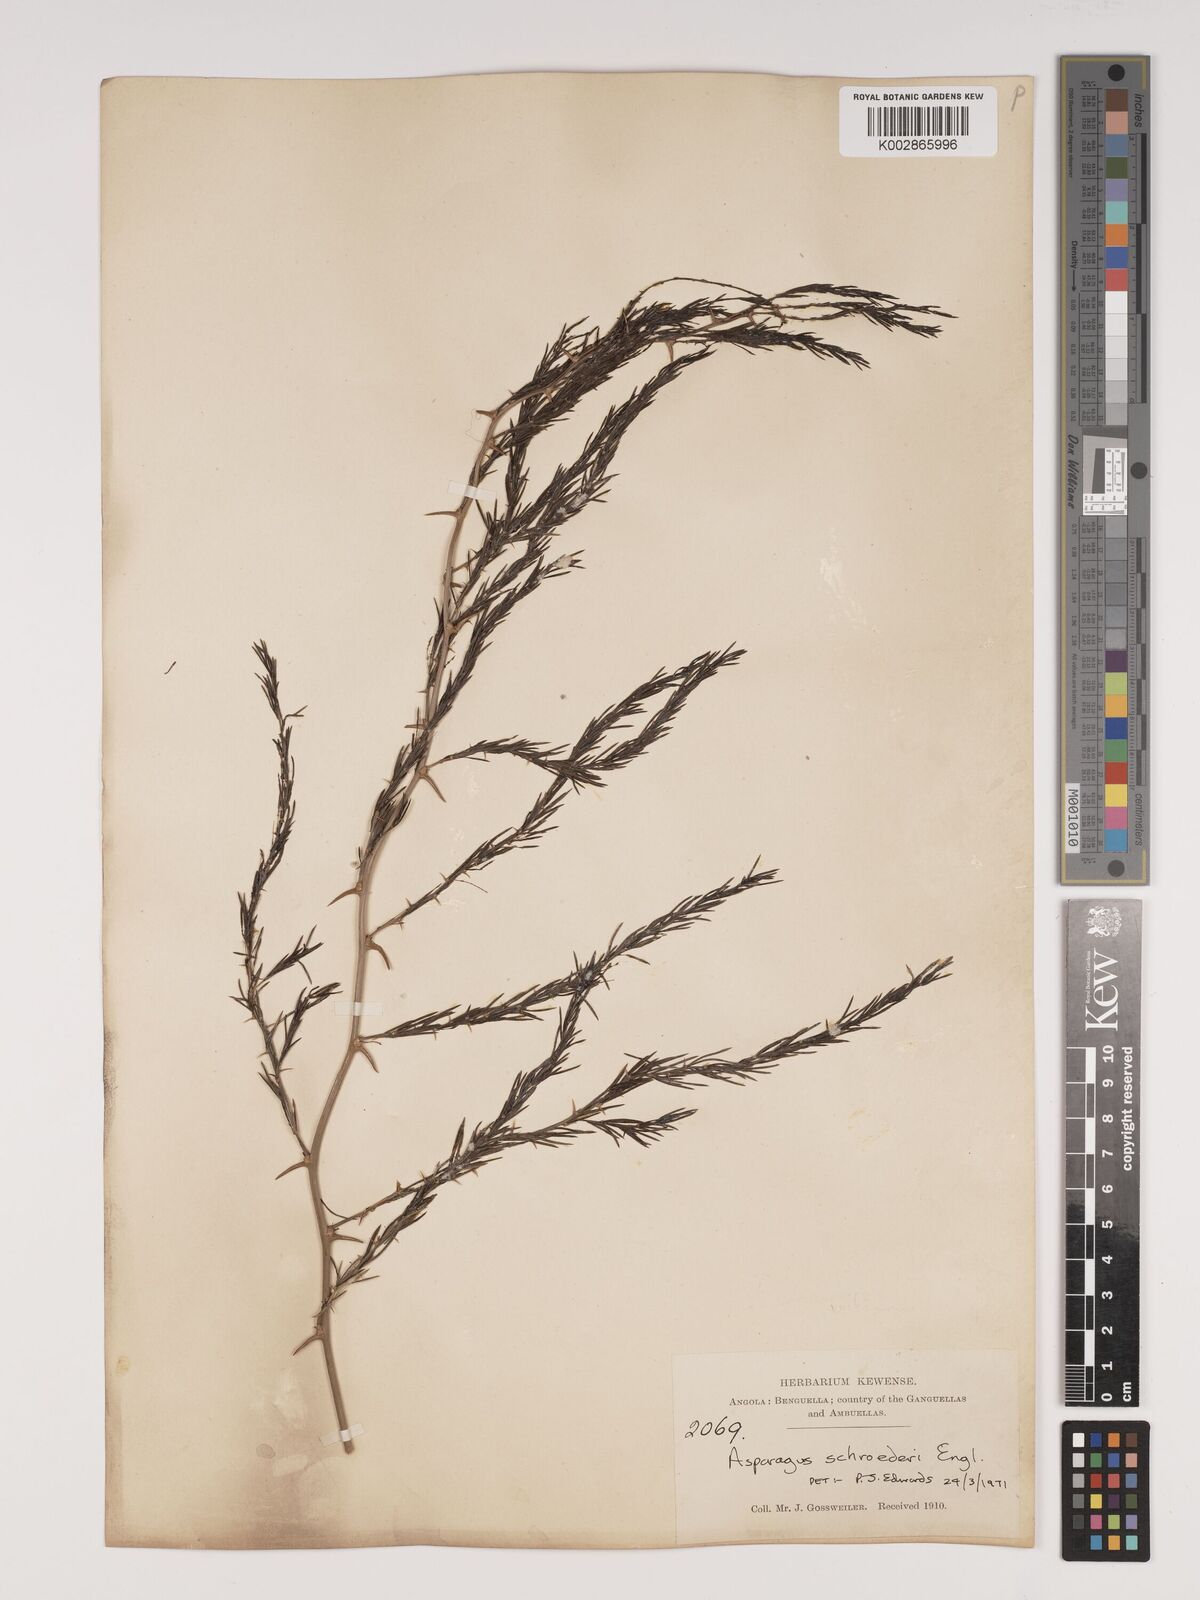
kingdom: Plantae
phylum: Tracheophyta
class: Liliopsida
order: Asparagales
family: Asparagaceae
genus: Asparagus
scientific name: Asparagus schroederi
